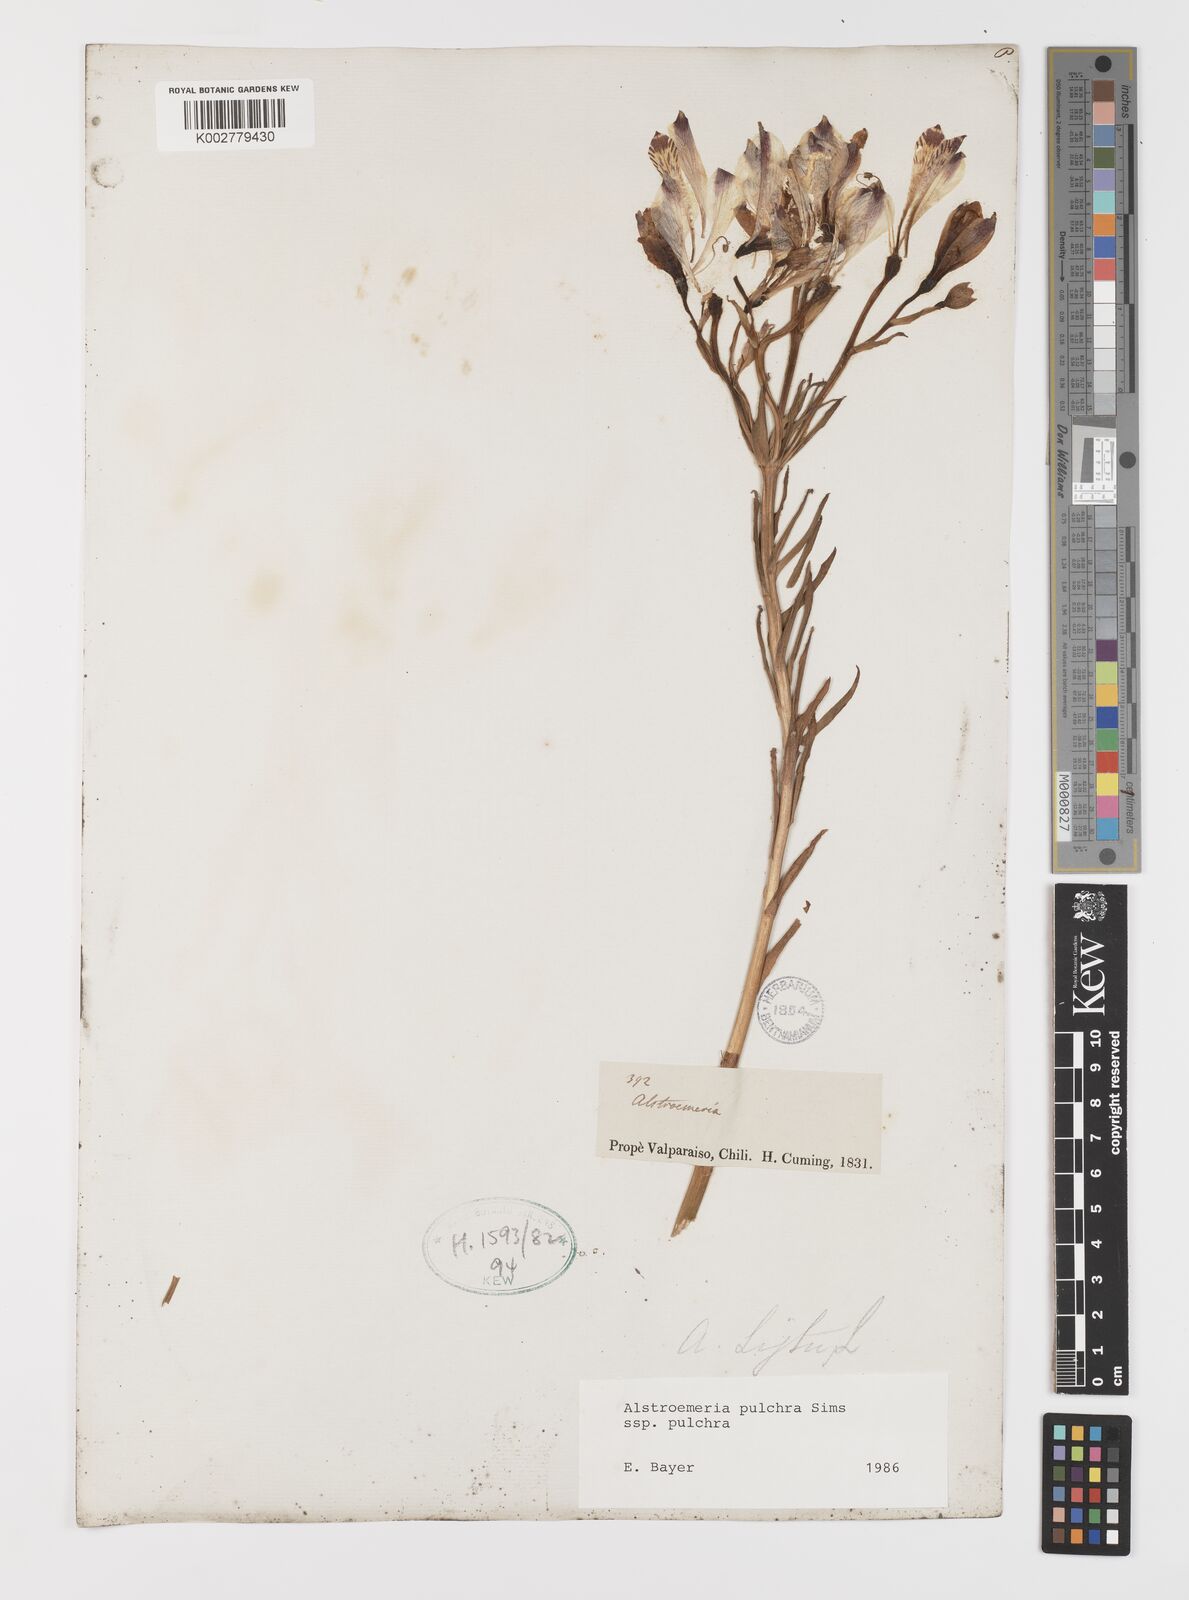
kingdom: Plantae
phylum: Tracheophyta
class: Liliopsida
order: Liliales
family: Alstroemeriaceae
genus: Alstroemeria
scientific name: Alstroemeria pulchra
